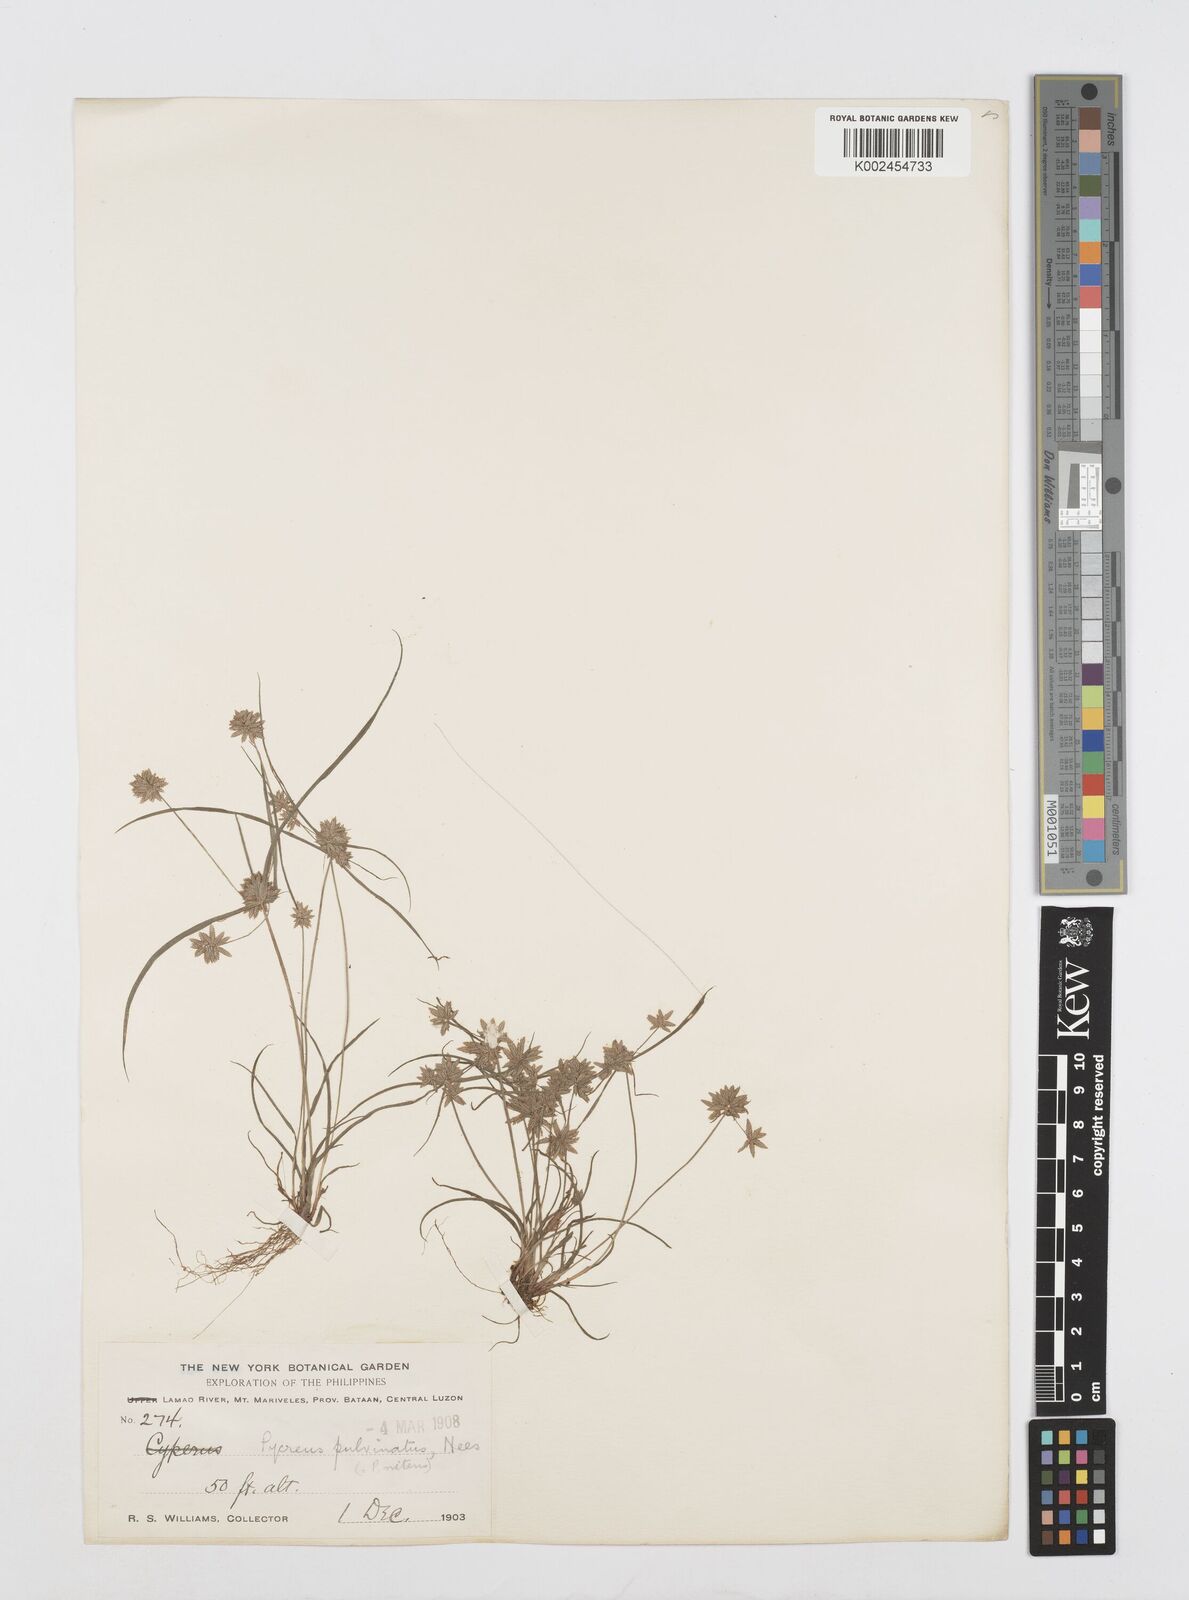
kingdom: Plantae
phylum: Tracheophyta
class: Liliopsida
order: Poales
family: Cyperaceae
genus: Cyperus
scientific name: Cyperus pumilus
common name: Low flatsedge
